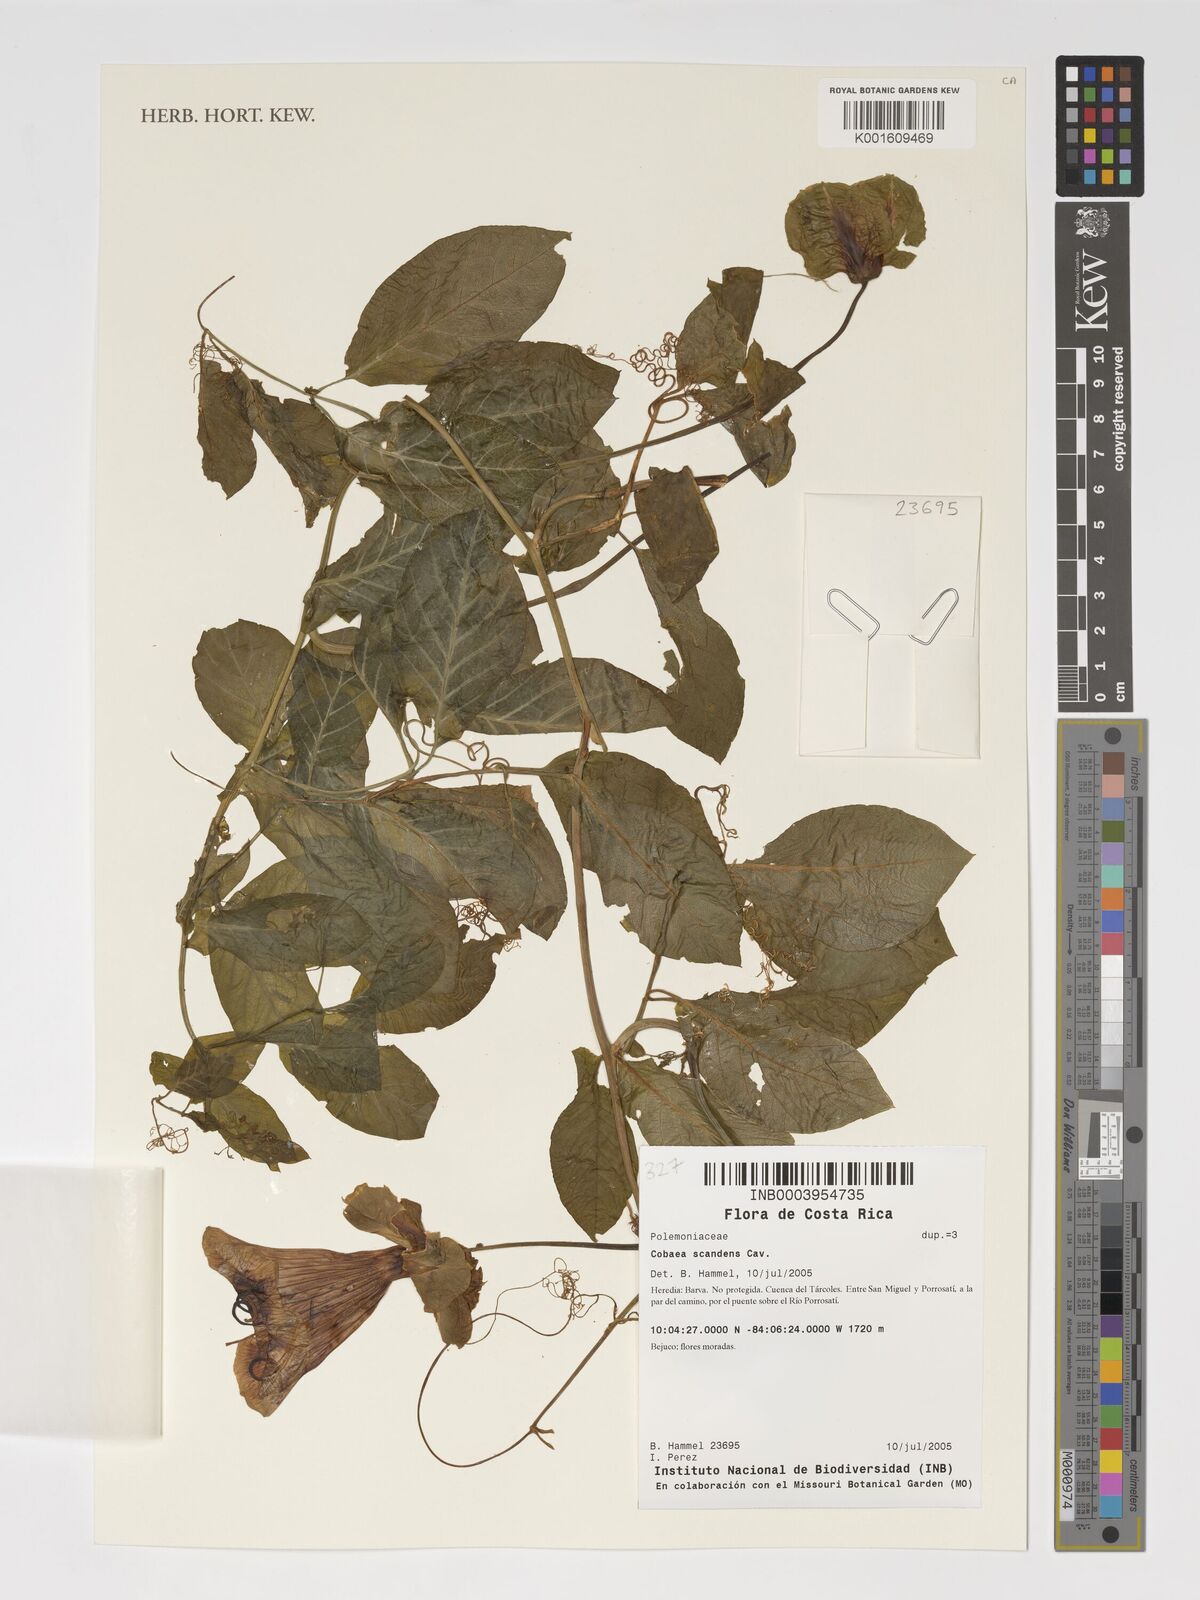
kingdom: Plantae
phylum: Tracheophyta
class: Magnoliopsida
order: Ericales
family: Polemoniaceae
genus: Cobaea
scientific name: Cobaea scandens
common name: Cup-and-saucer-vine
